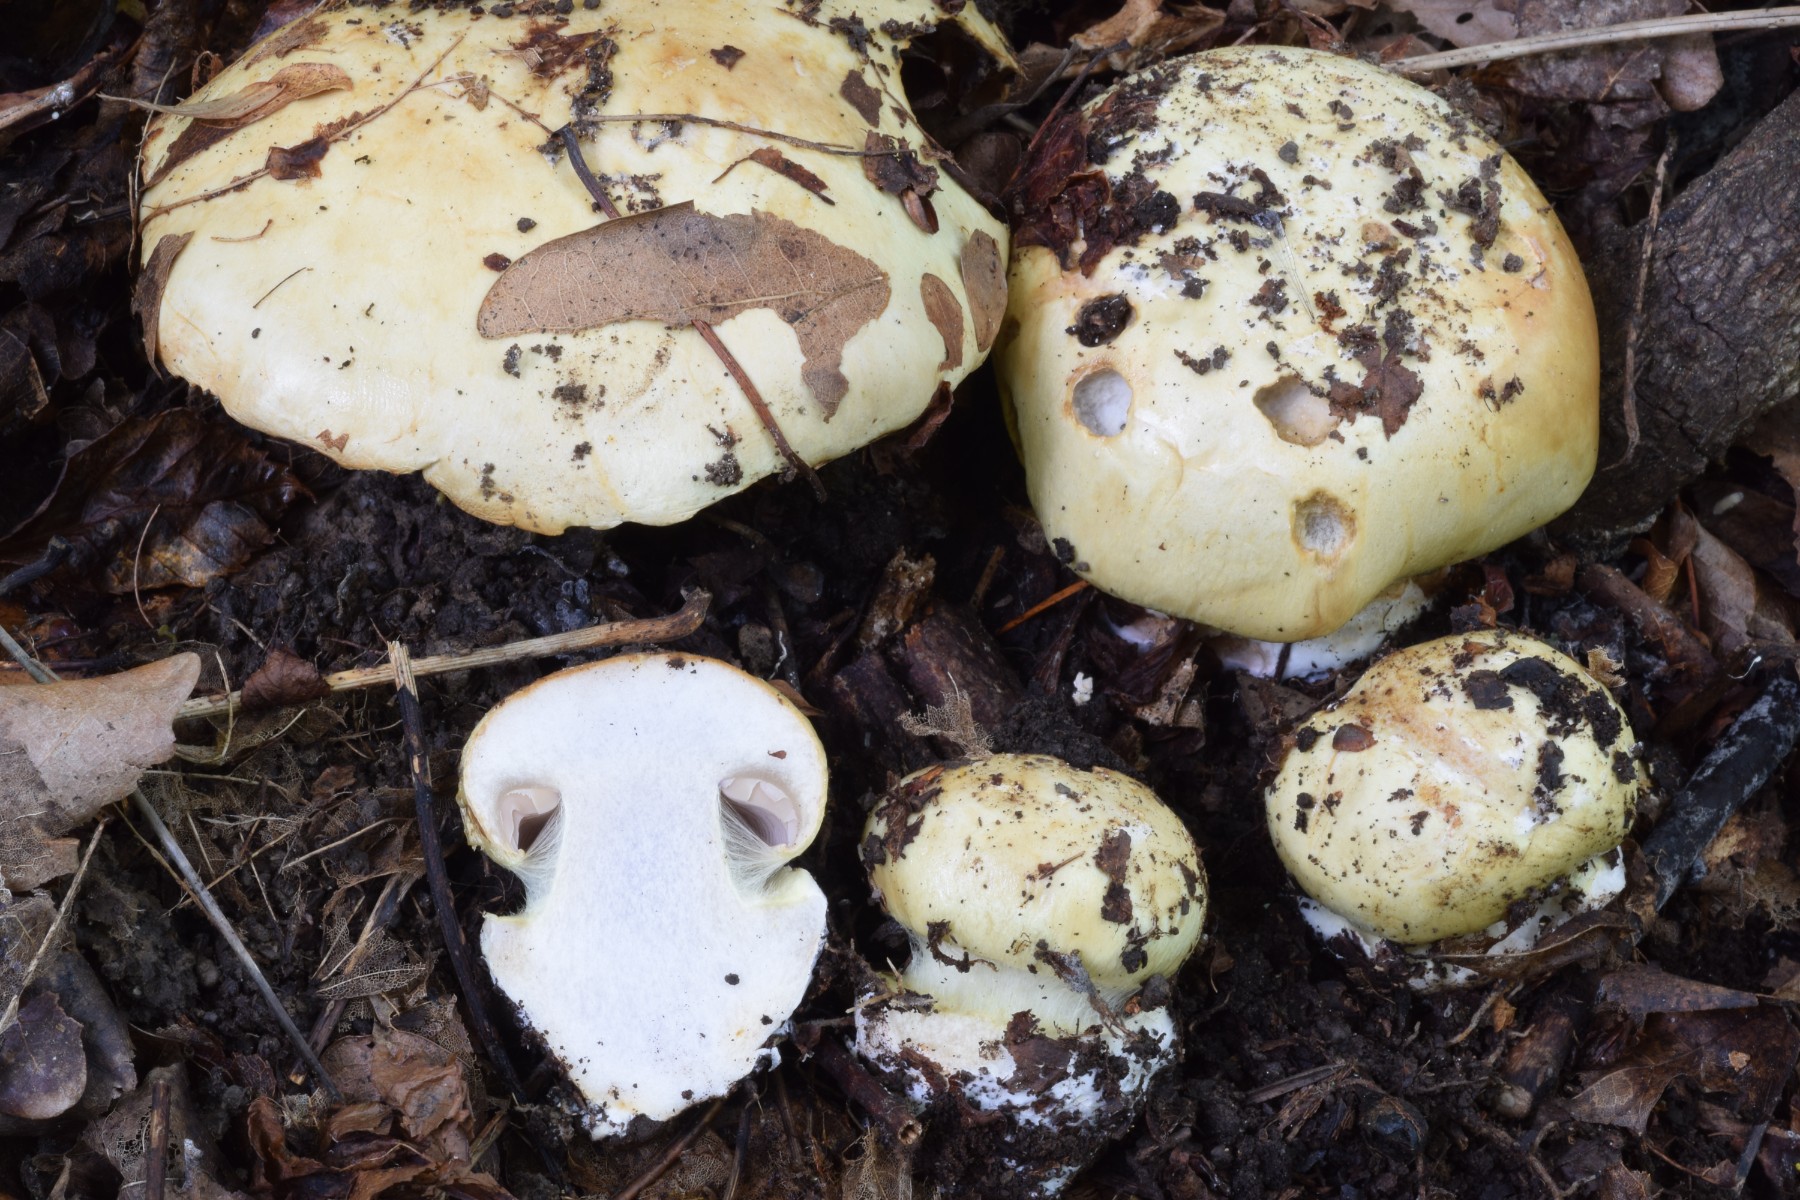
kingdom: Fungi
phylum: Basidiomycota
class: Agaricomycetes
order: Agaricales
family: Cortinariaceae
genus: Calonarius
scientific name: Calonarius lavandulochlorus
